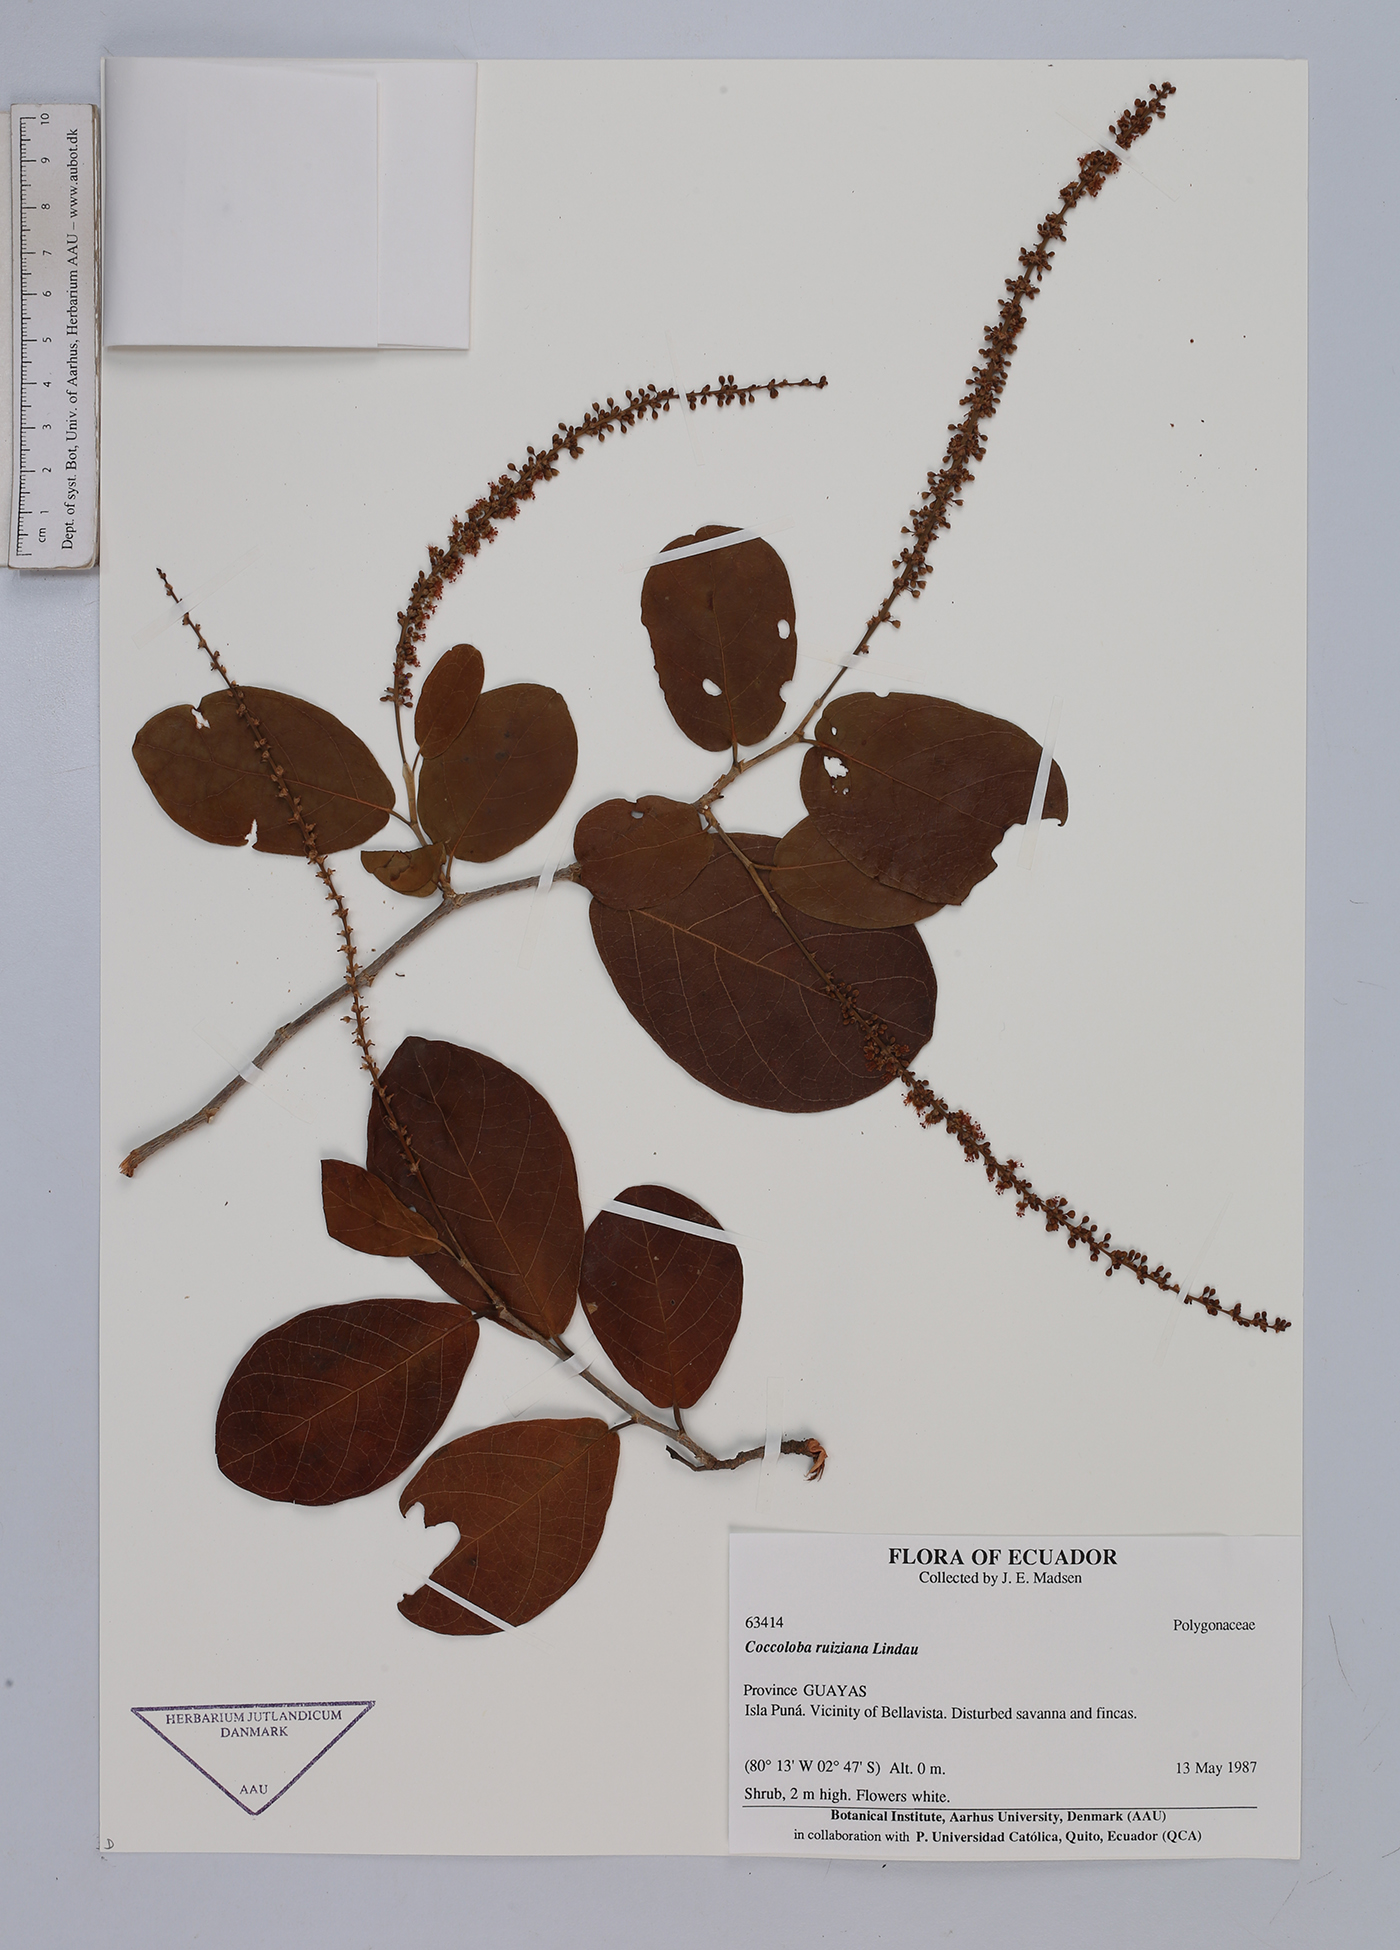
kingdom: Plantae
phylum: Tracheophyta
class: Magnoliopsida
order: Caryophyllales
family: Polygonaceae
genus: Coccoloba
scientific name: Coccoloba ruiziana
